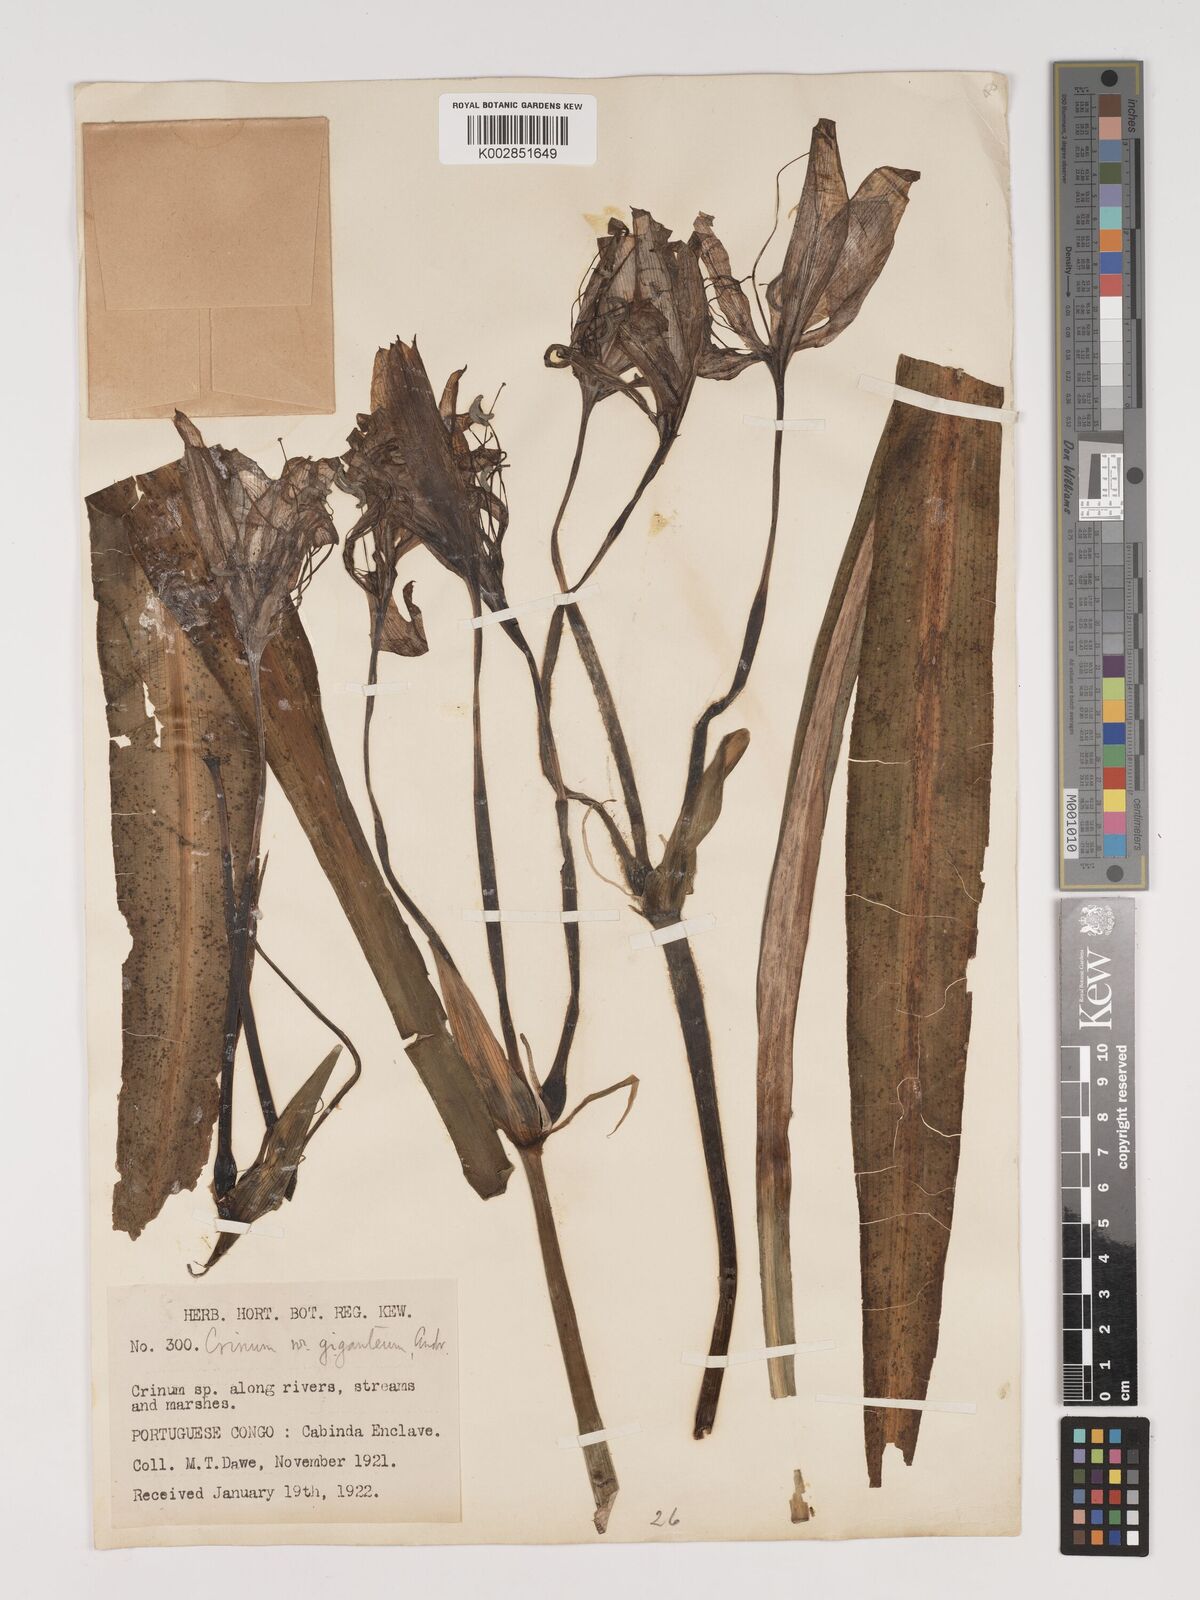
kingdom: Plantae
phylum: Tracheophyta
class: Liliopsida
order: Asparagales
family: Amaryllidaceae
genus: Crinum
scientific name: Crinum jagus
